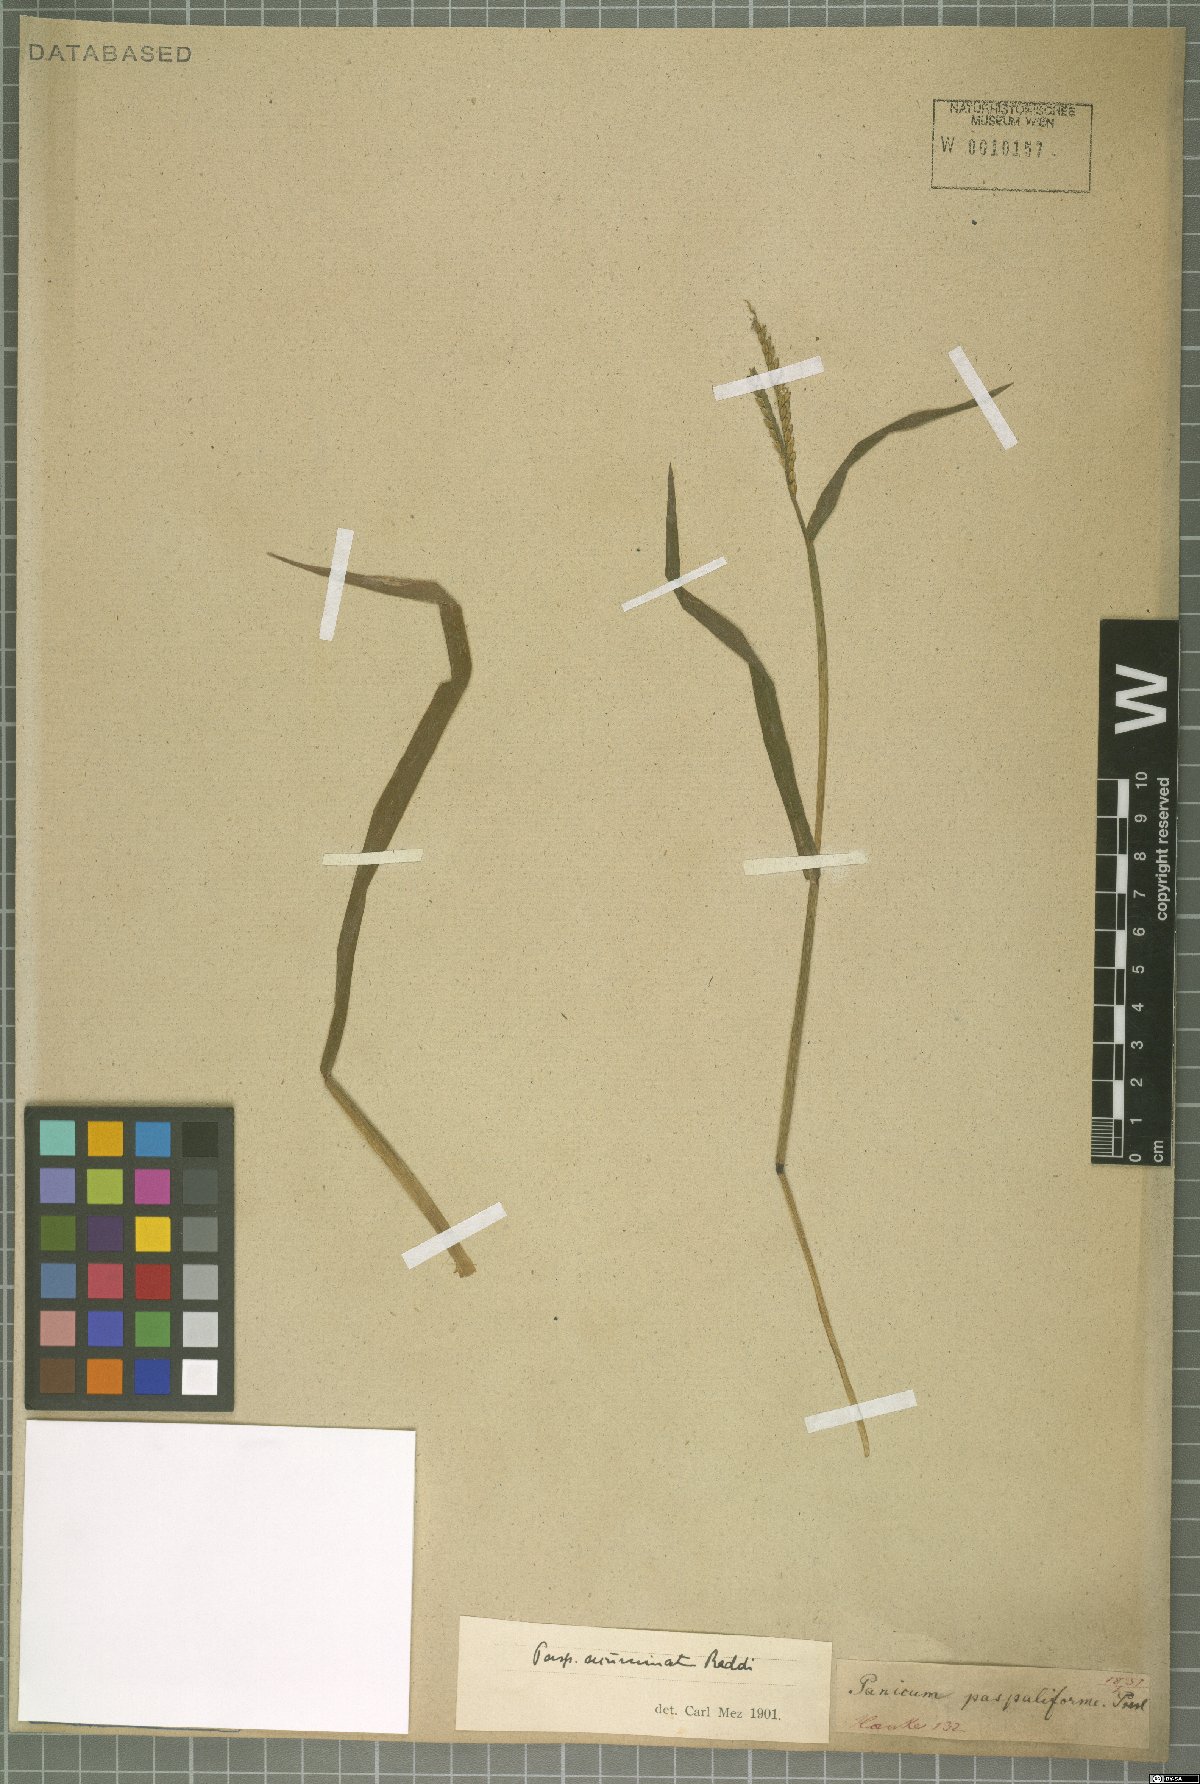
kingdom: Plantae
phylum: Tracheophyta
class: Liliopsida
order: Poales
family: Poaceae
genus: Paspalum
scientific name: Paspalum acuminatum
